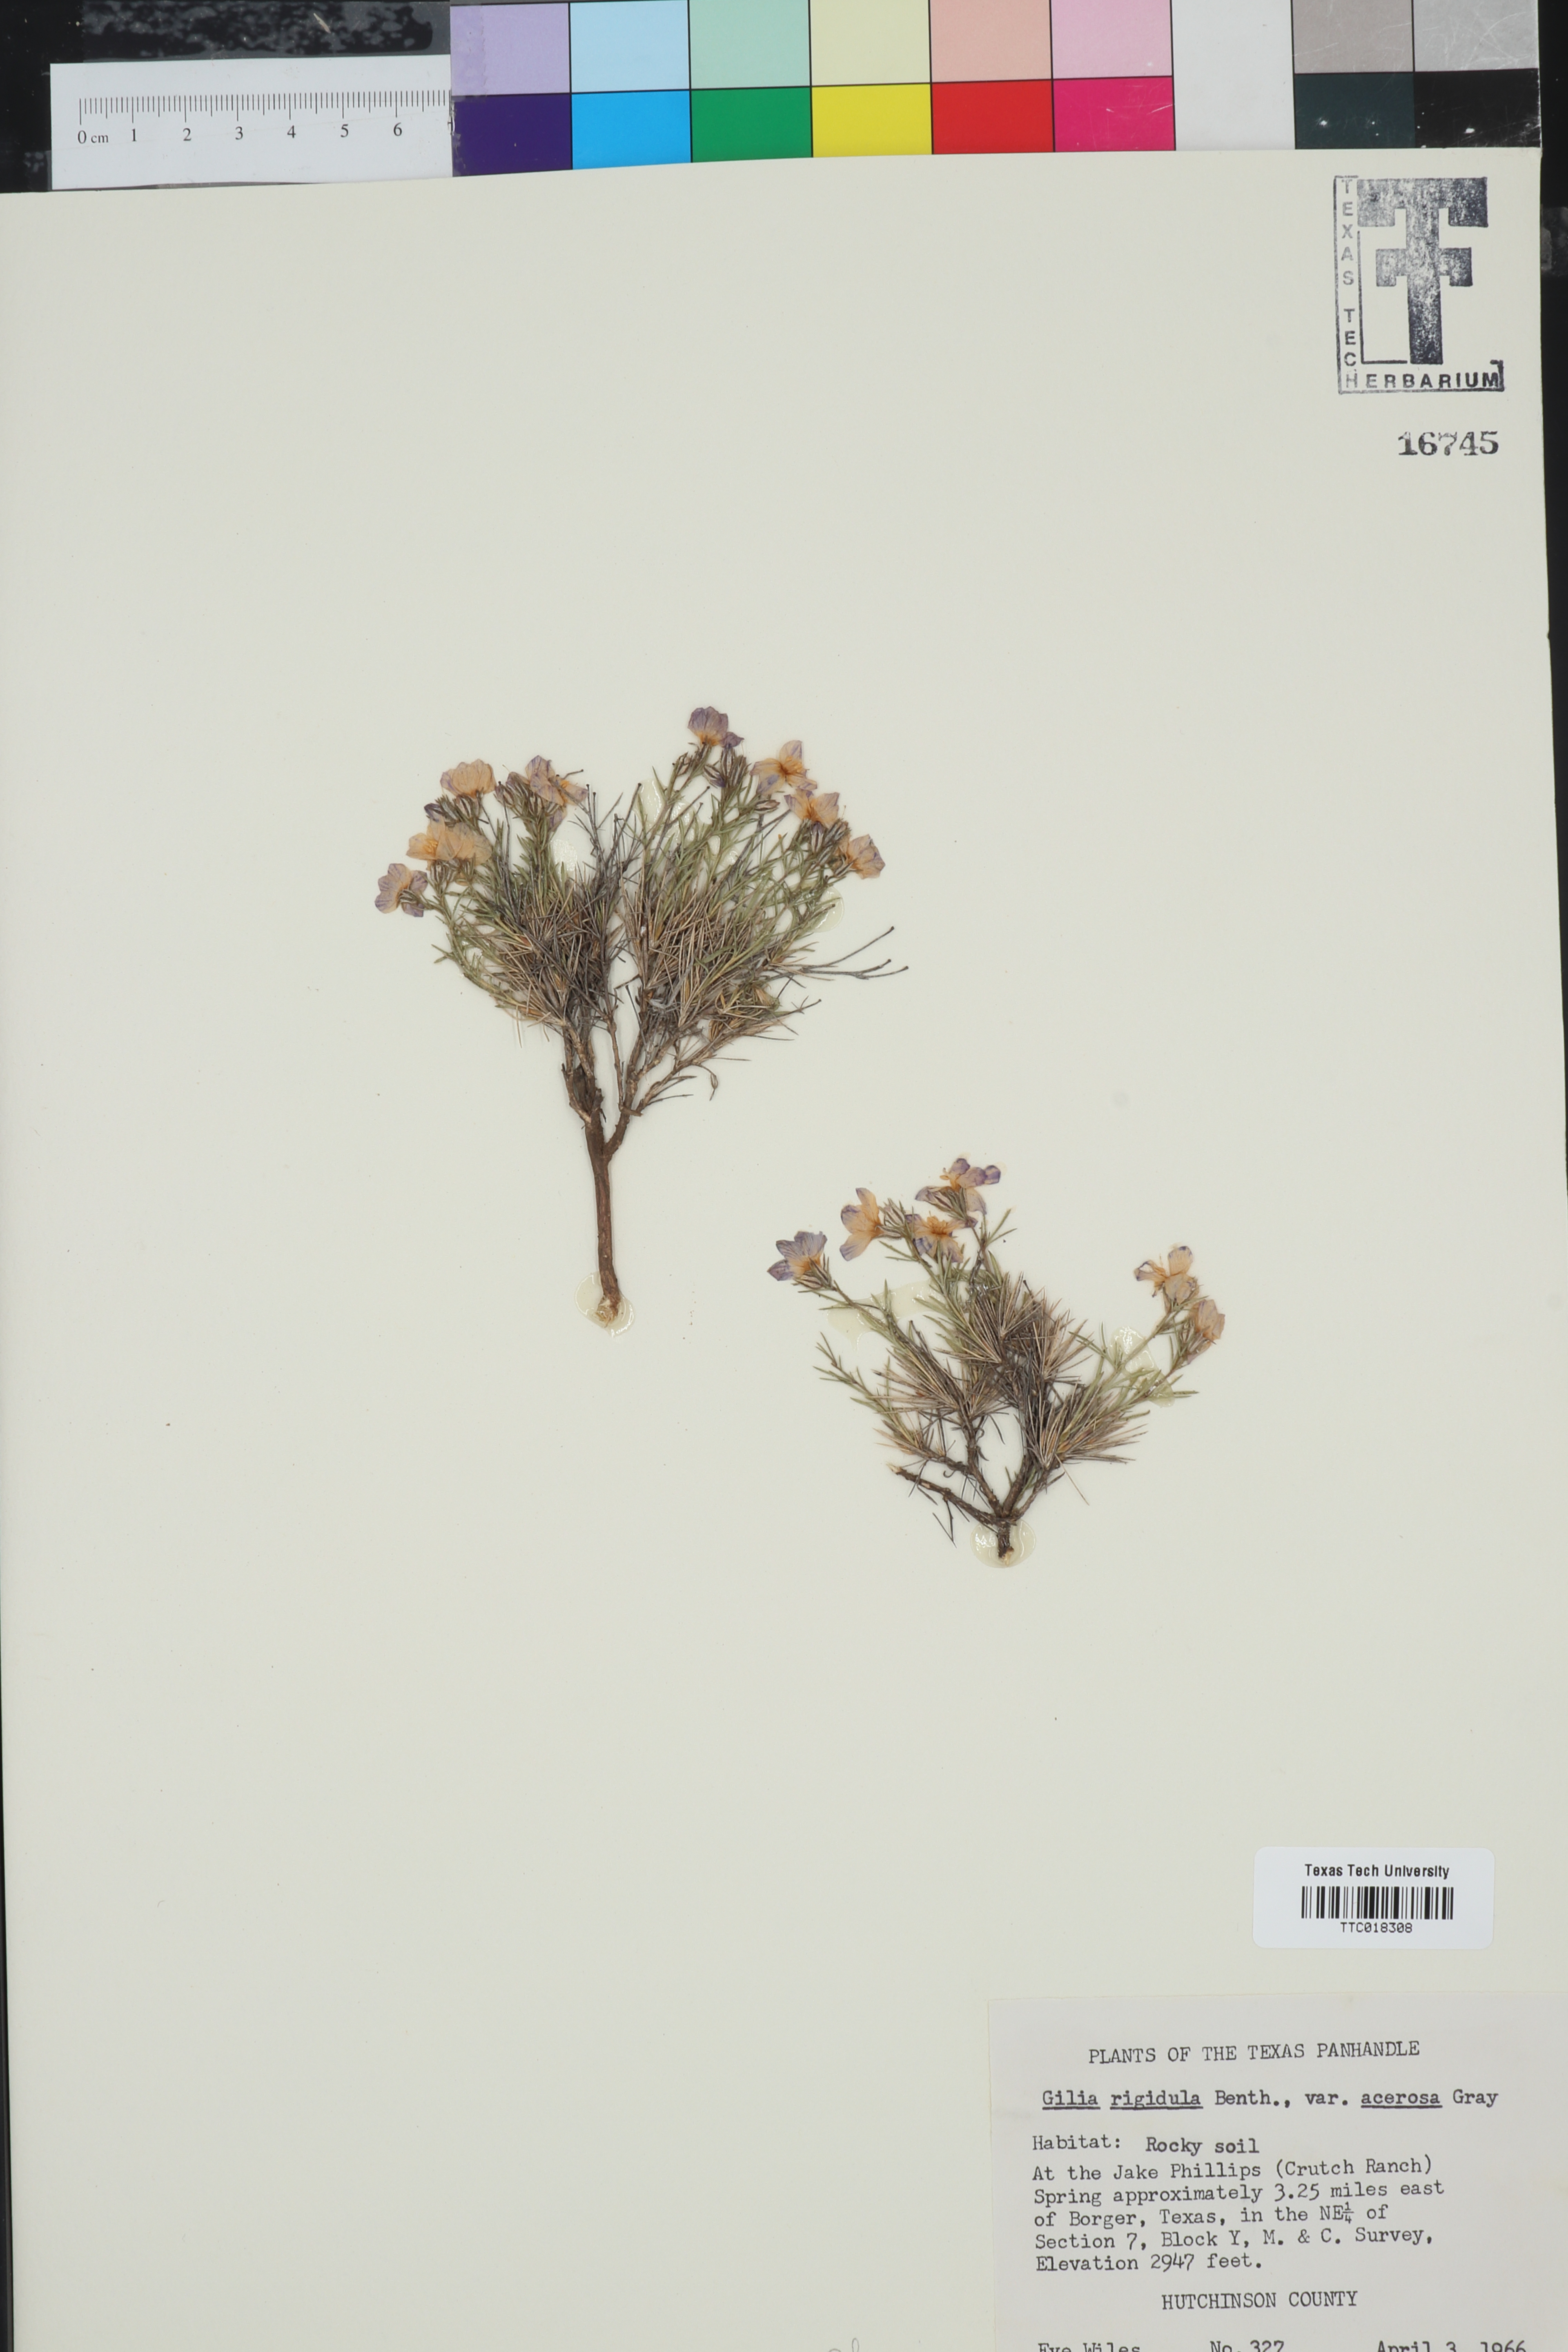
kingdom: Plantae
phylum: Tracheophyta
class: Magnoliopsida
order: Ericales
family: Polemoniaceae
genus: Giliastrum
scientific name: Giliastrum acerosum
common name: Bluebowls
